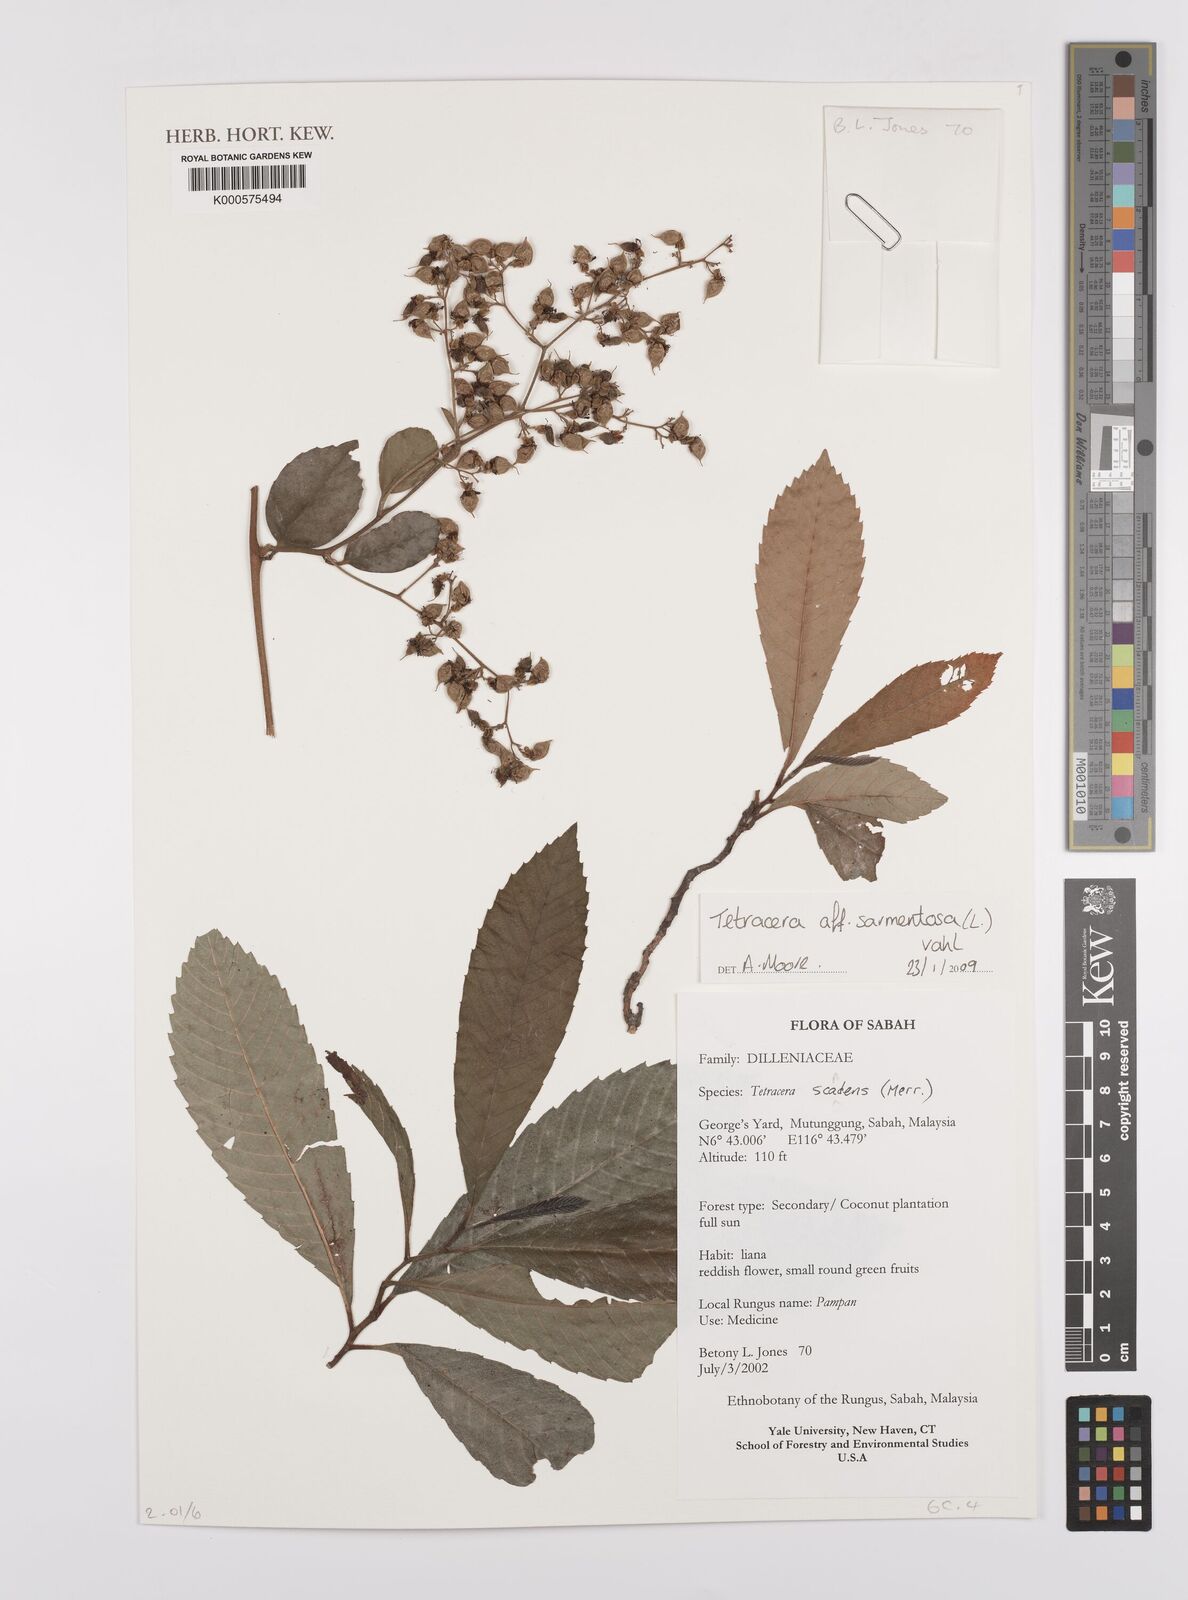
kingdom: Plantae
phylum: Tracheophyta
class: Magnoliopsida
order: Dilleniales
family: Dilleniaceae
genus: Tetracera
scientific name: Tetracera sarmentosa
